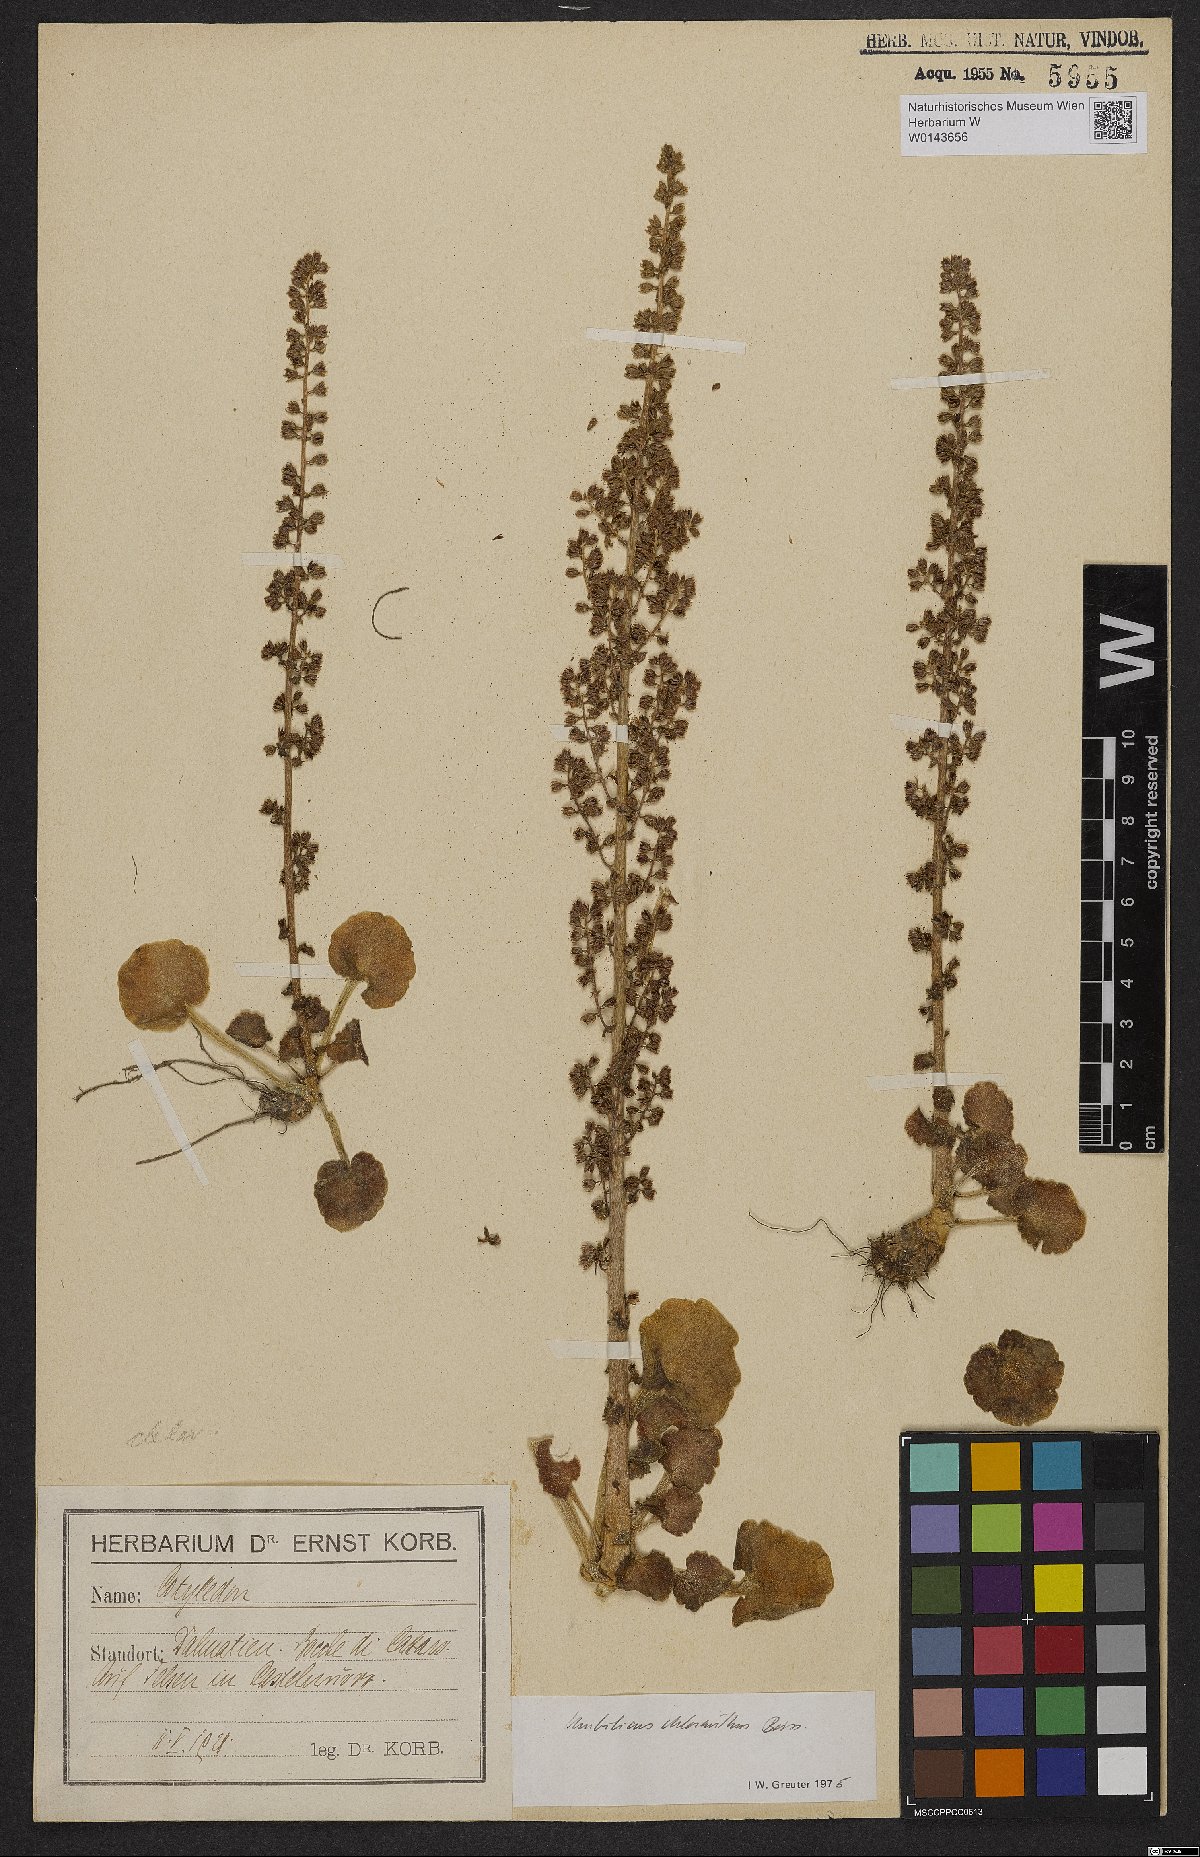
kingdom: Plantae
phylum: Tracheophyta
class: Magnoliopsida
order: Saxifragales
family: Crassulaceae
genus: Umbilicus
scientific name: Umbilicus chloranthus
